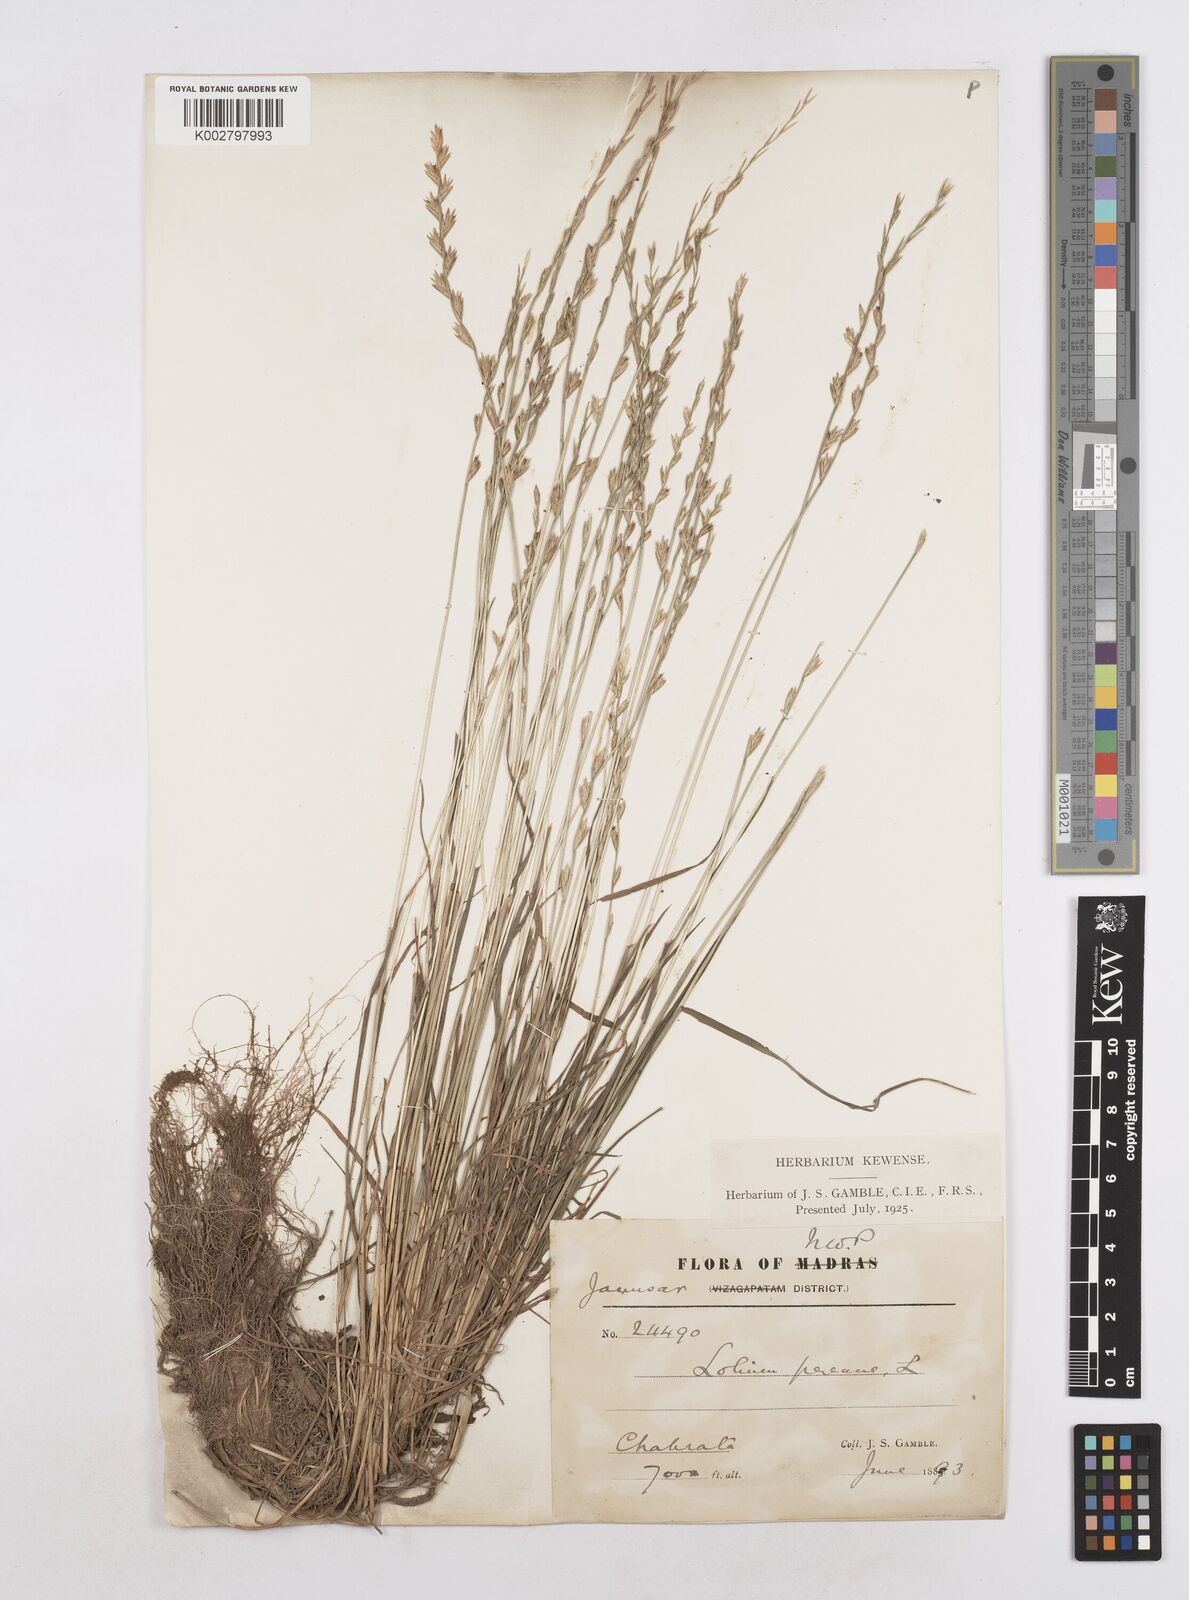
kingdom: Plantae
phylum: Tracheophyta
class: Liliopsida
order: Poales
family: Poaceae
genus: Lolium
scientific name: Lolium perenne
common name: Perennial ryegrass
